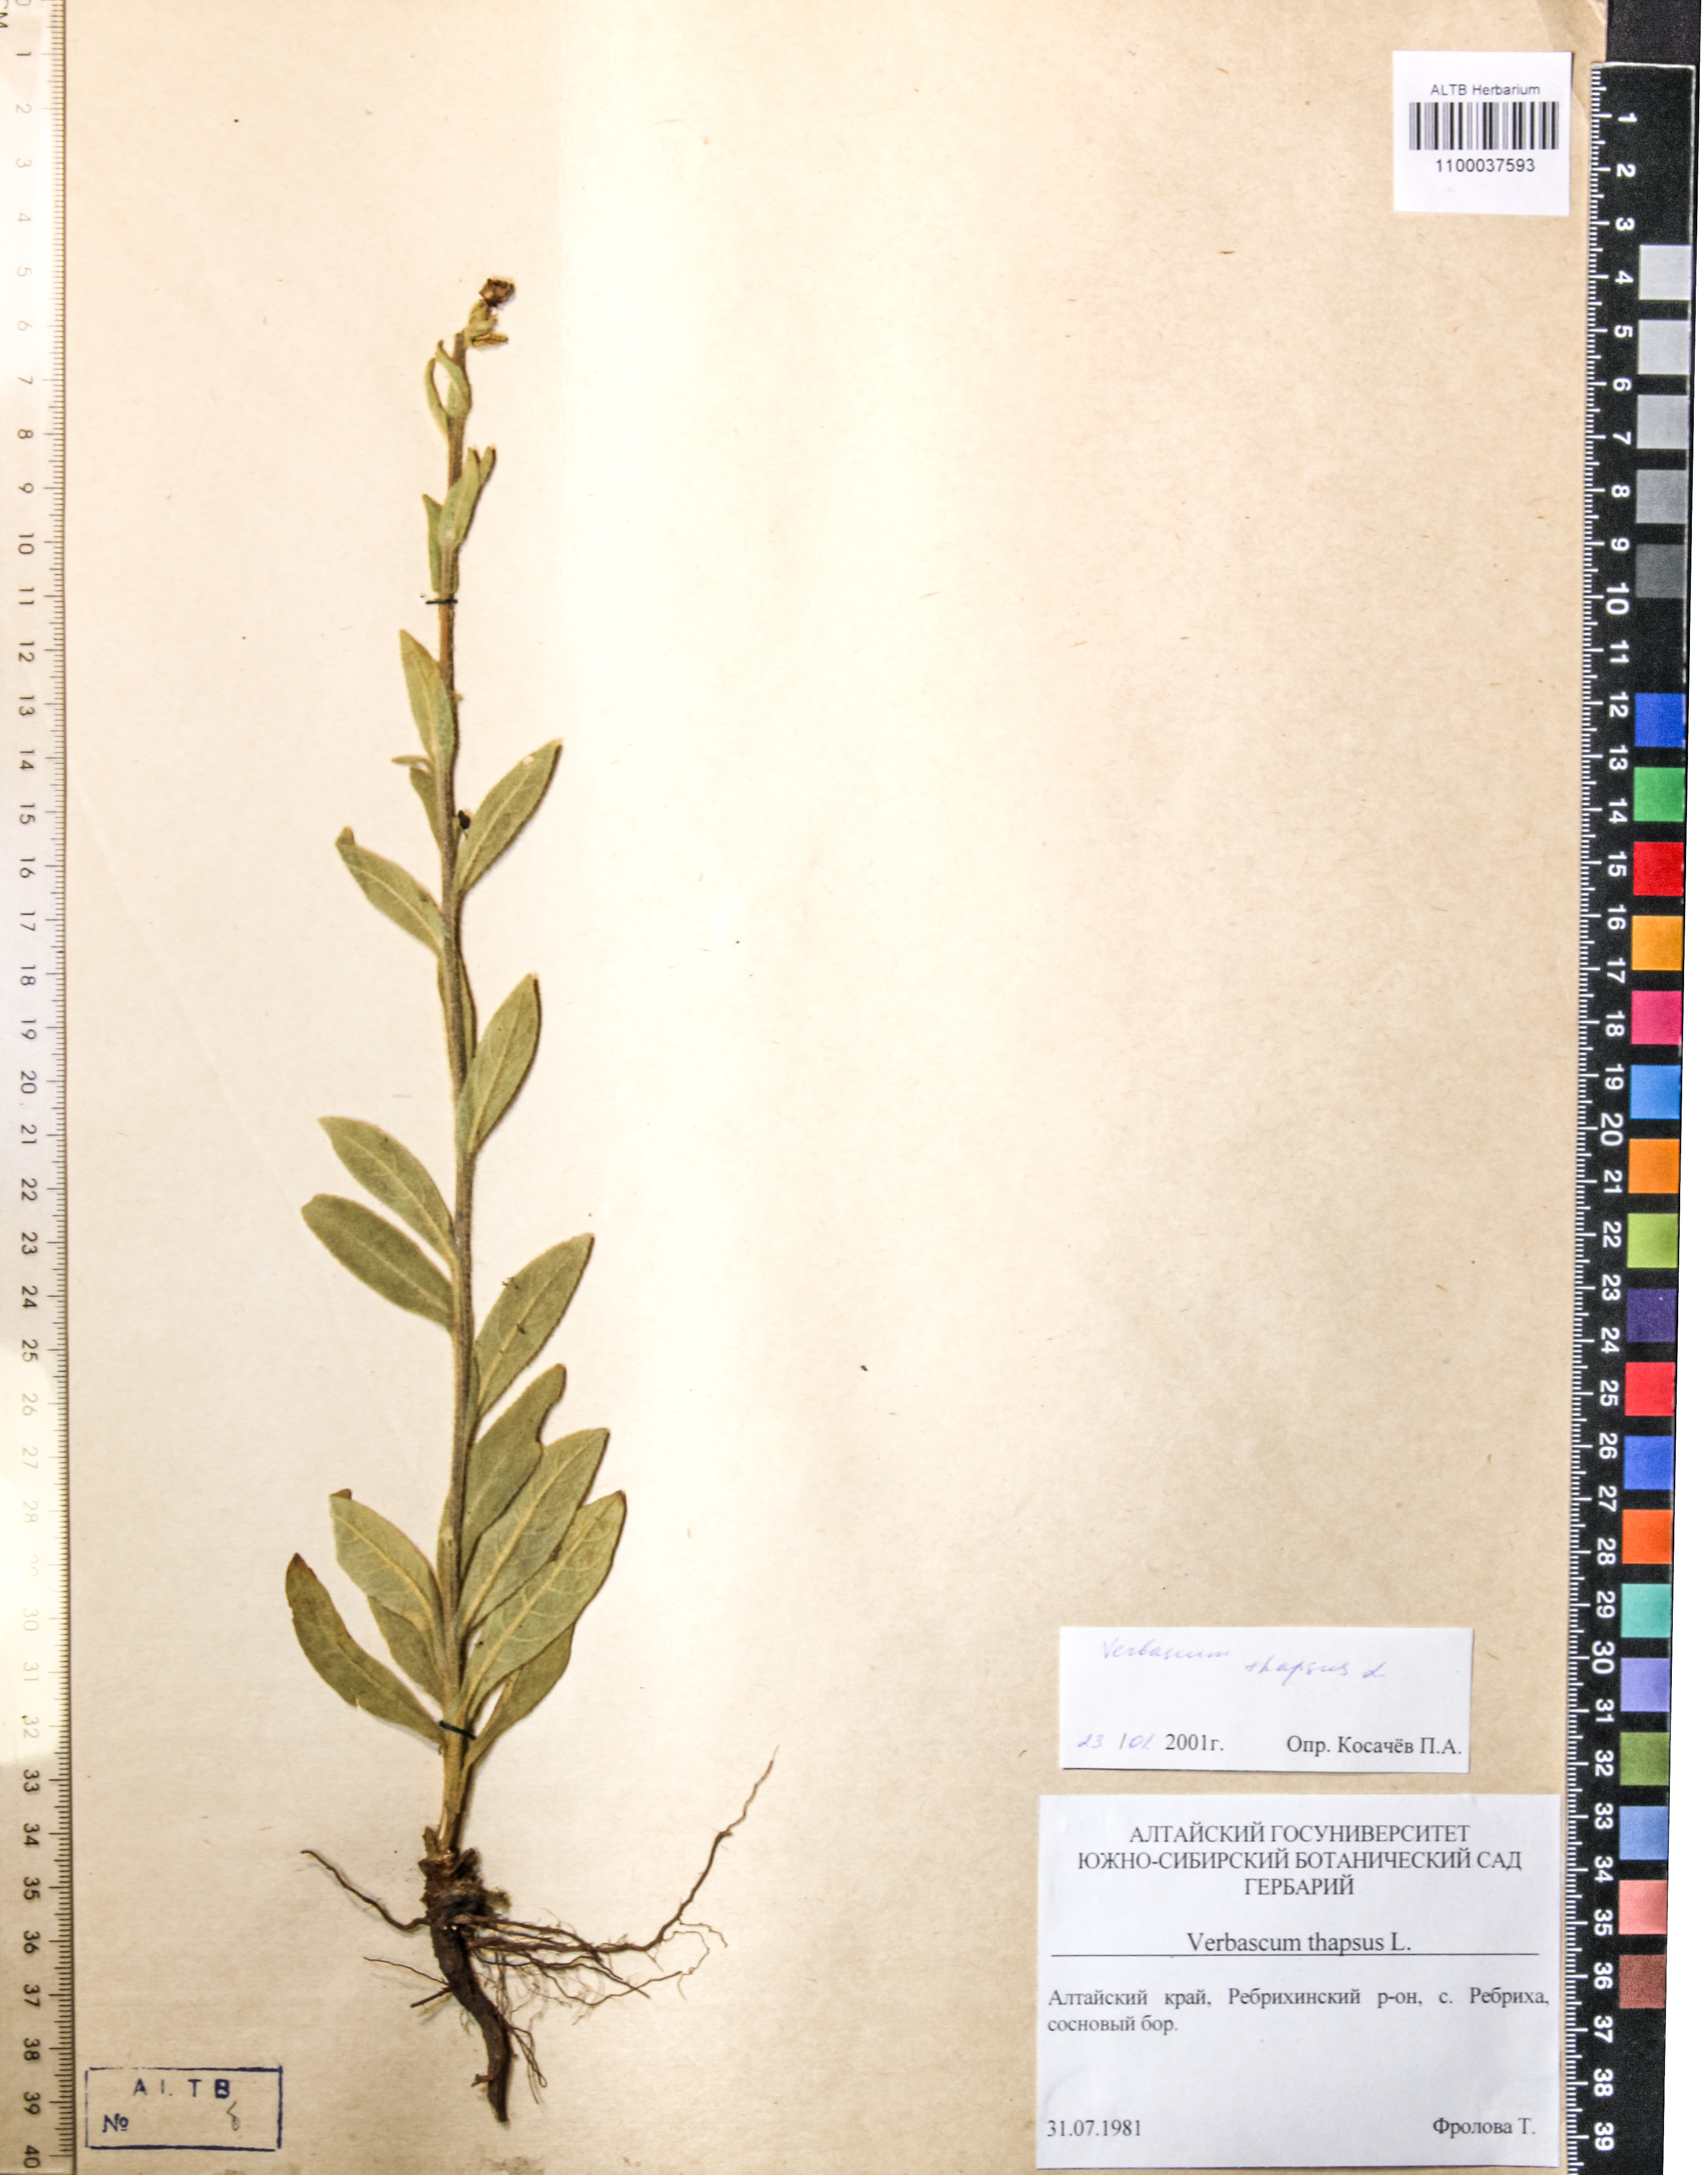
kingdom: Plantae
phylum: Tracheophyta
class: Magnoliopsida
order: Lamiales
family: Scrophulariaceae
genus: Verbascum
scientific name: Verbascum thapsus
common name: Common mullein
